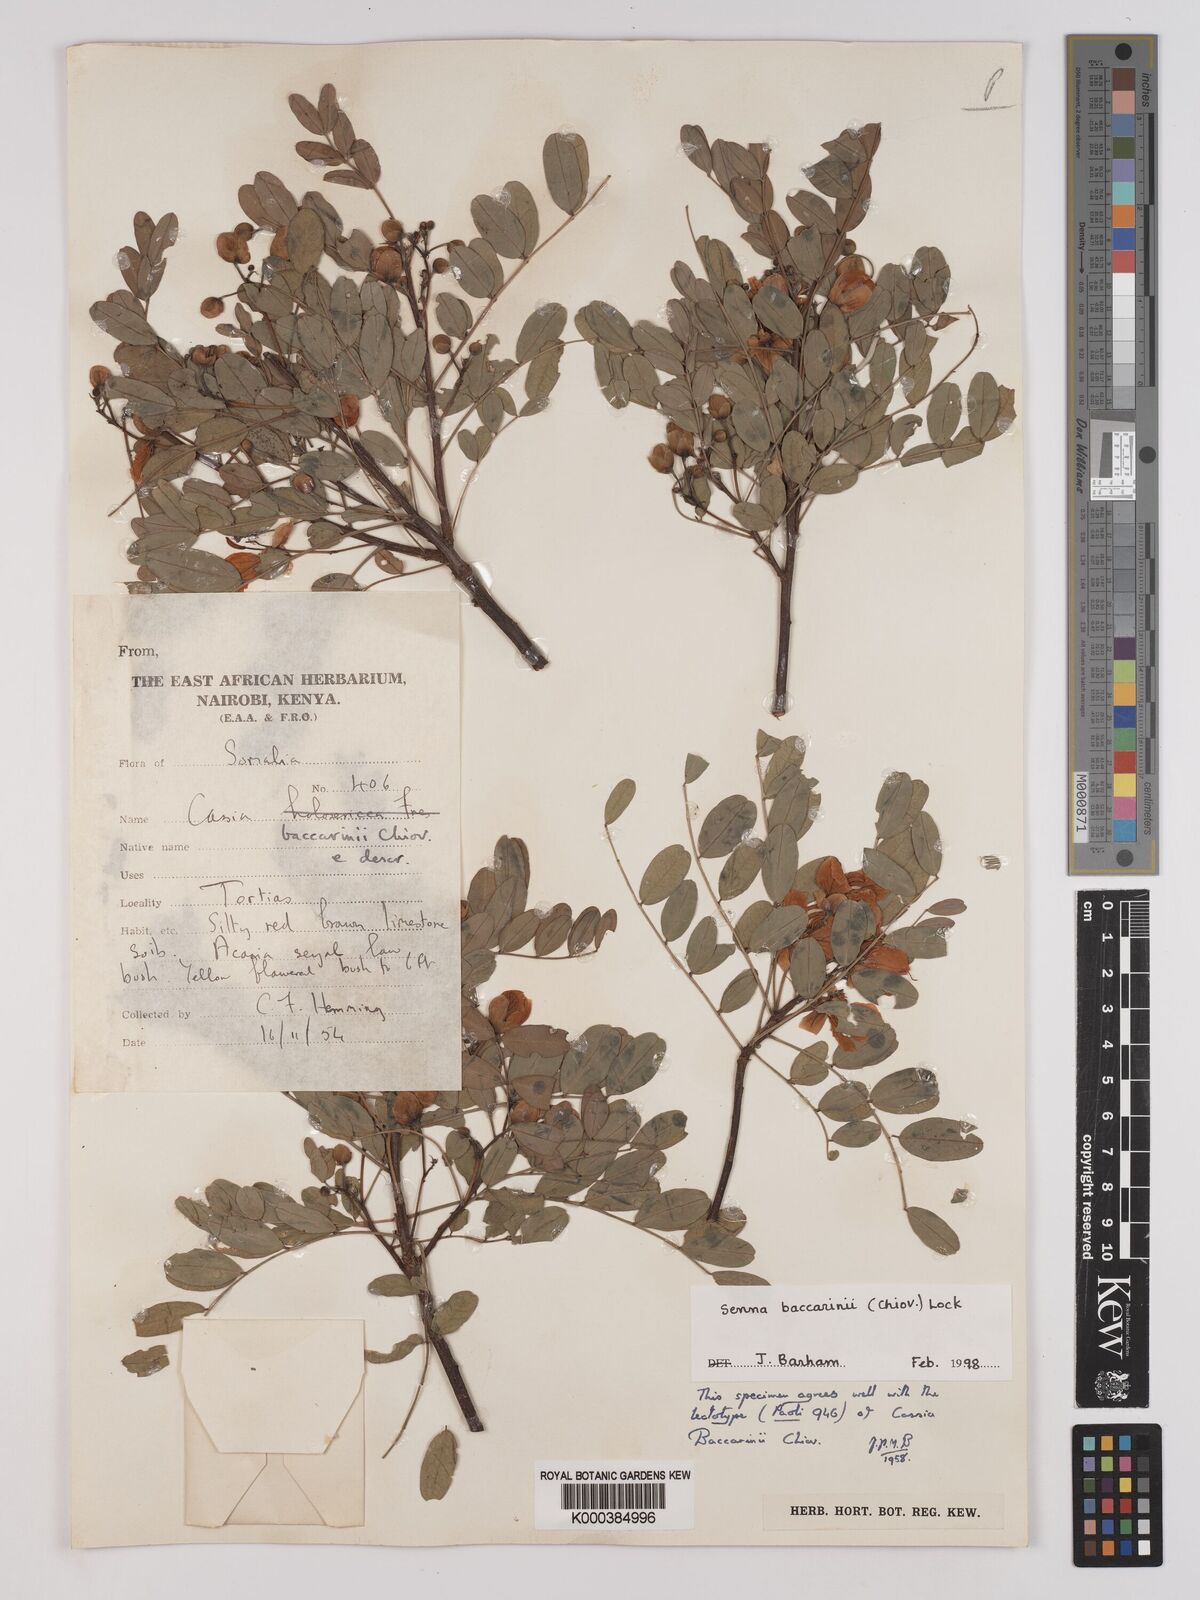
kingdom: Plantae
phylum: Tracheophyta
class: Magnoliopsida
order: Fabales
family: Fabaceae
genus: Senna
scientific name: Senna baccarinii
